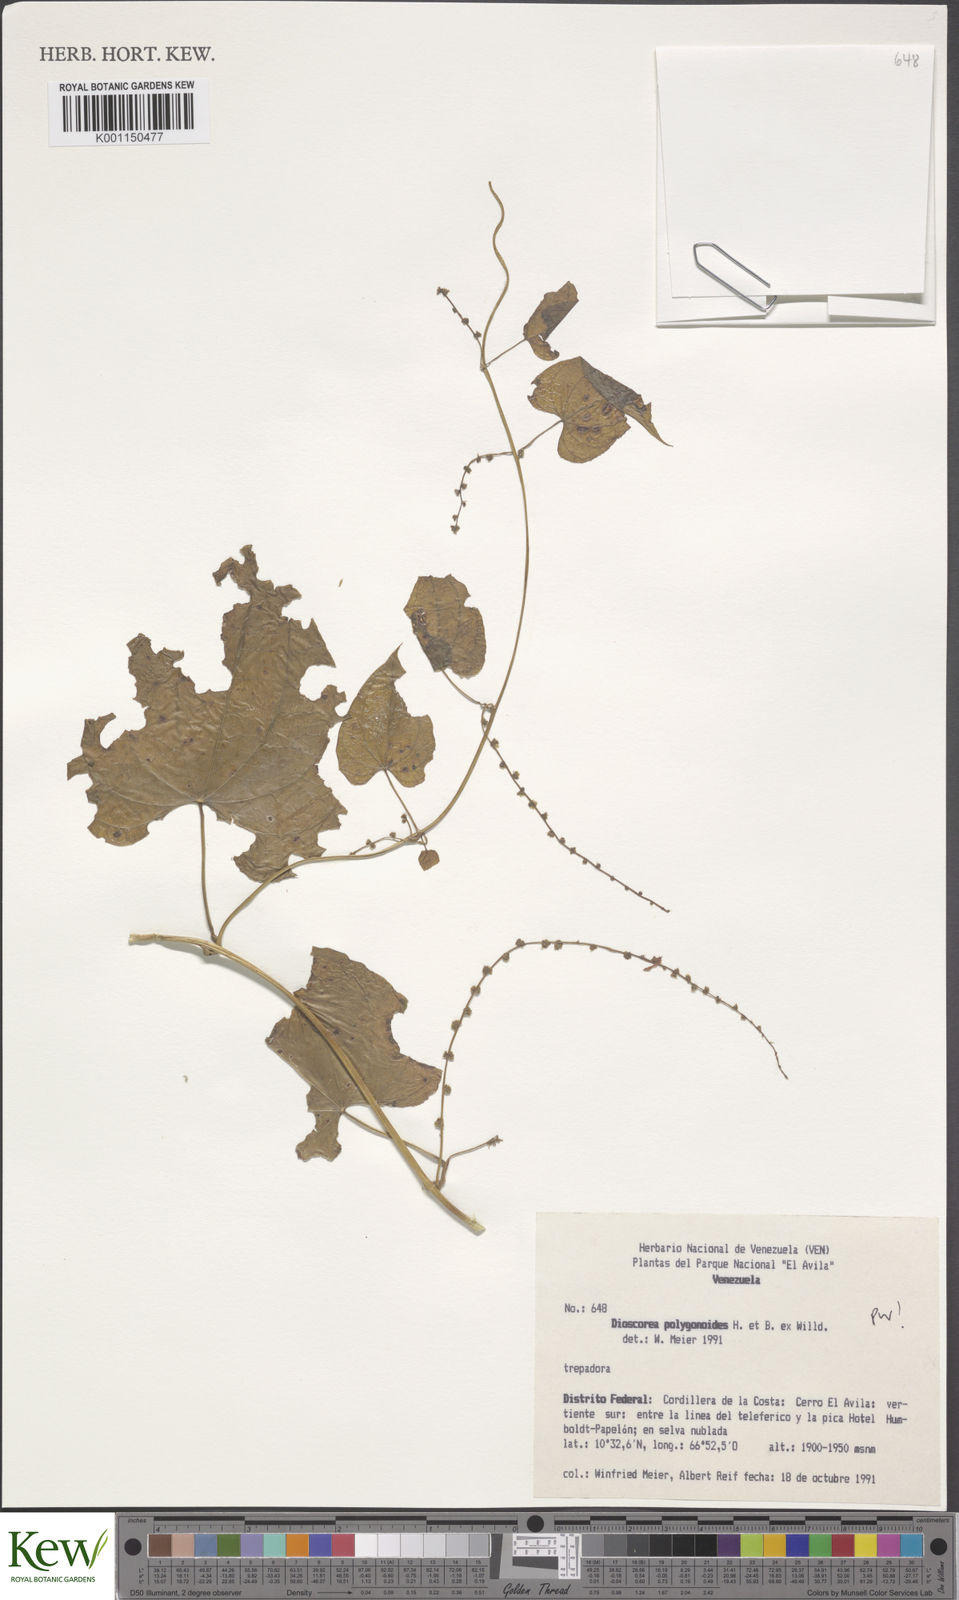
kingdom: Plantae
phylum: Tracheophyta
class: Liliopsida
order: Dioscoreales
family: Dioscoreaceae
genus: Dioscorea
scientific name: Dioscorea polygonoides
